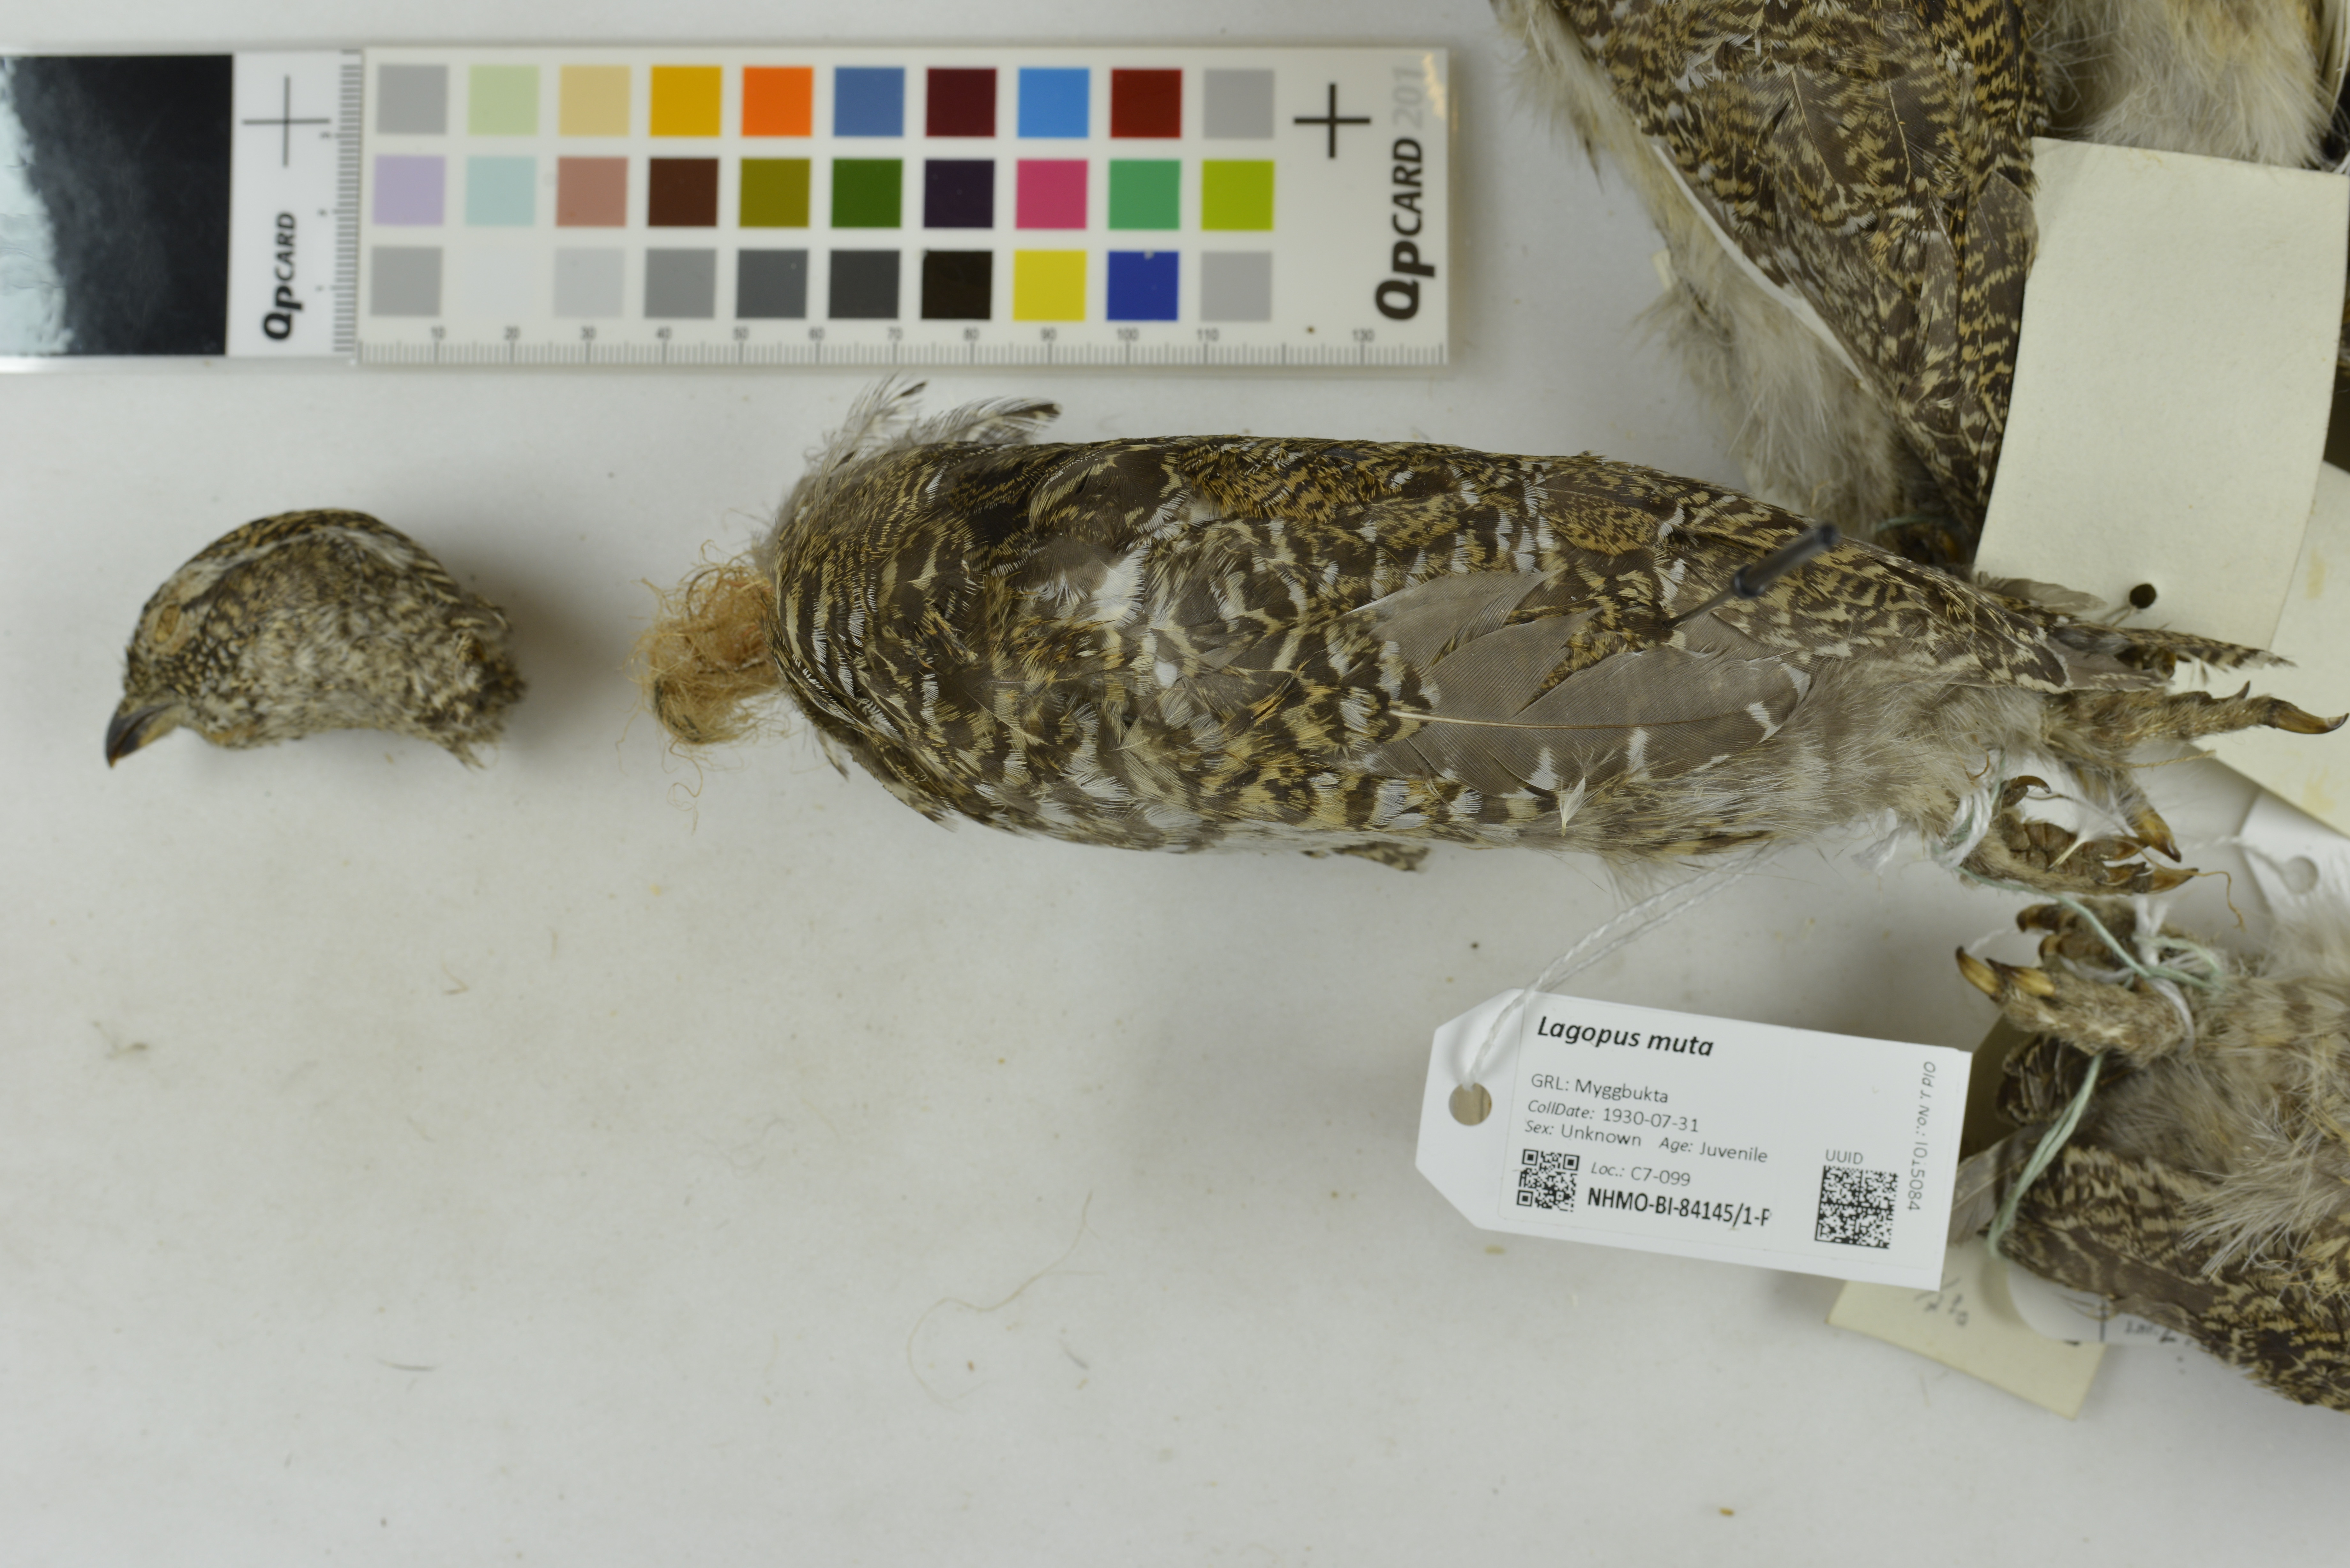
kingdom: Animalia
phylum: Chordata
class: Aves
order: Galliformes
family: Phasianidae
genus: Lagopus
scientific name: Lagopus muta
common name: Rock ptarmigan
